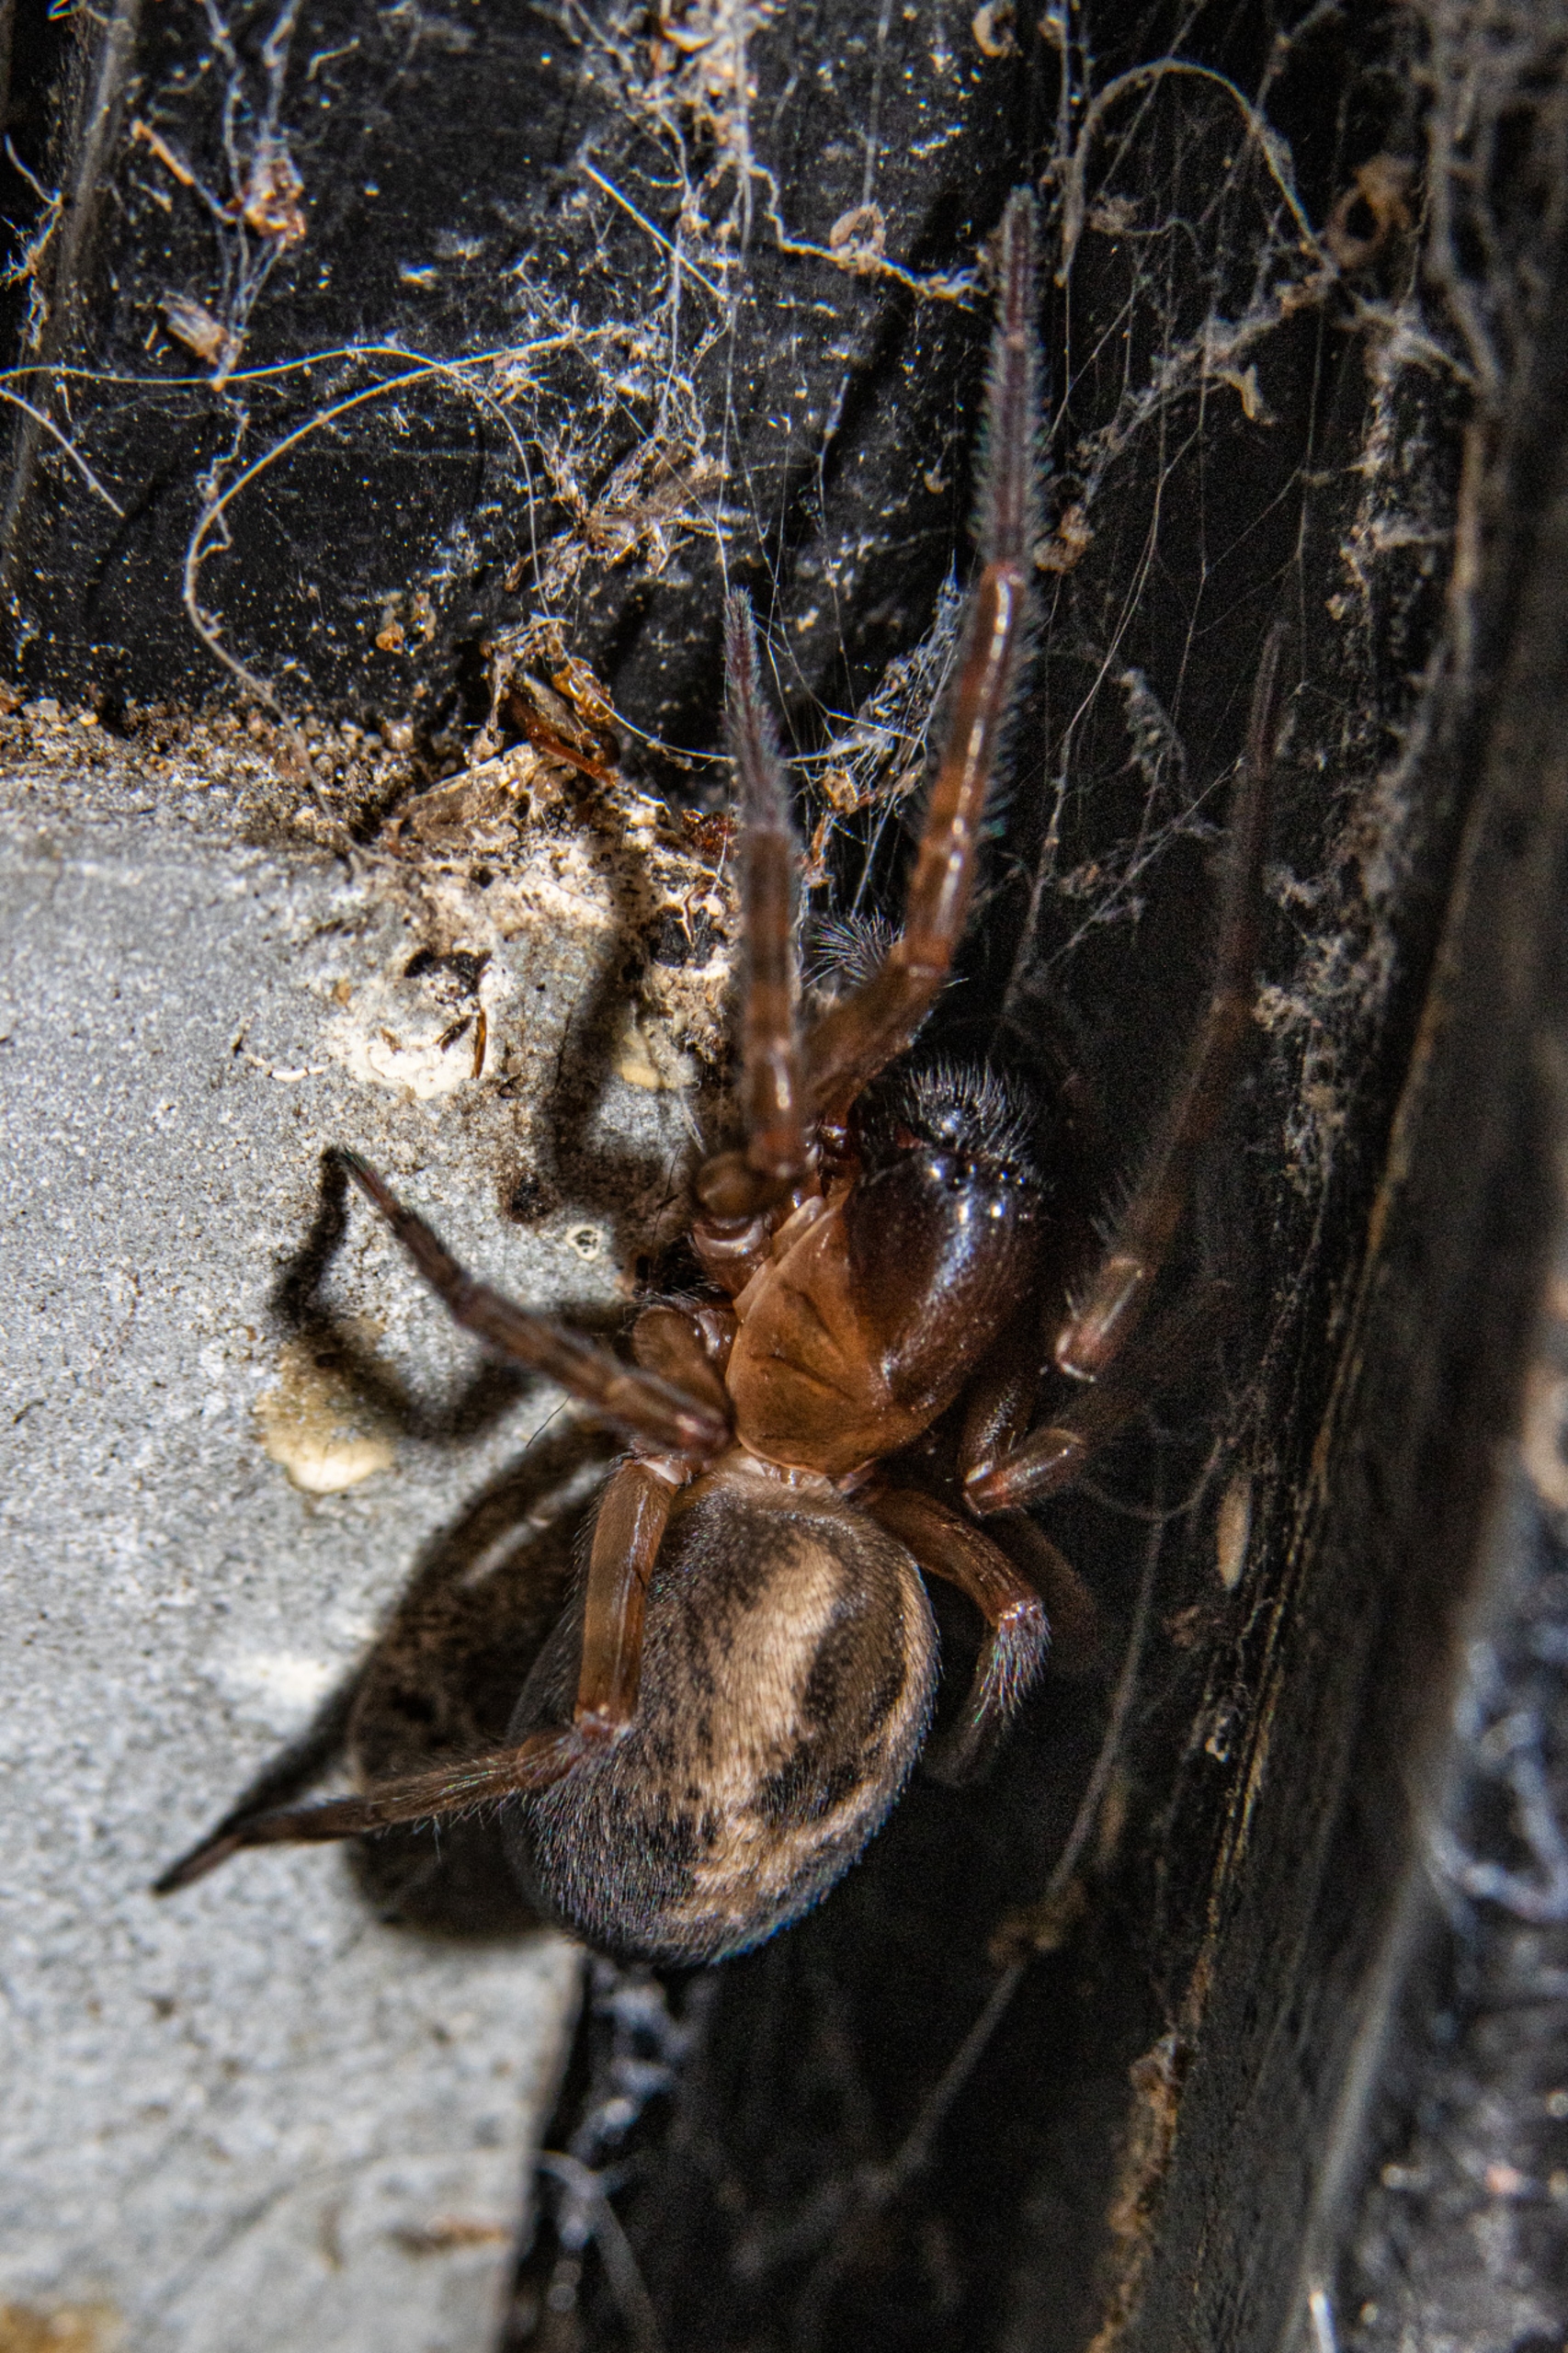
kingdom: Animalia
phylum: Arthropoda
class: Arachnida
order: Araneae
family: Amaurobiidae
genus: Amaurobius
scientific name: Amaurobius similis
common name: Huskartespinder
